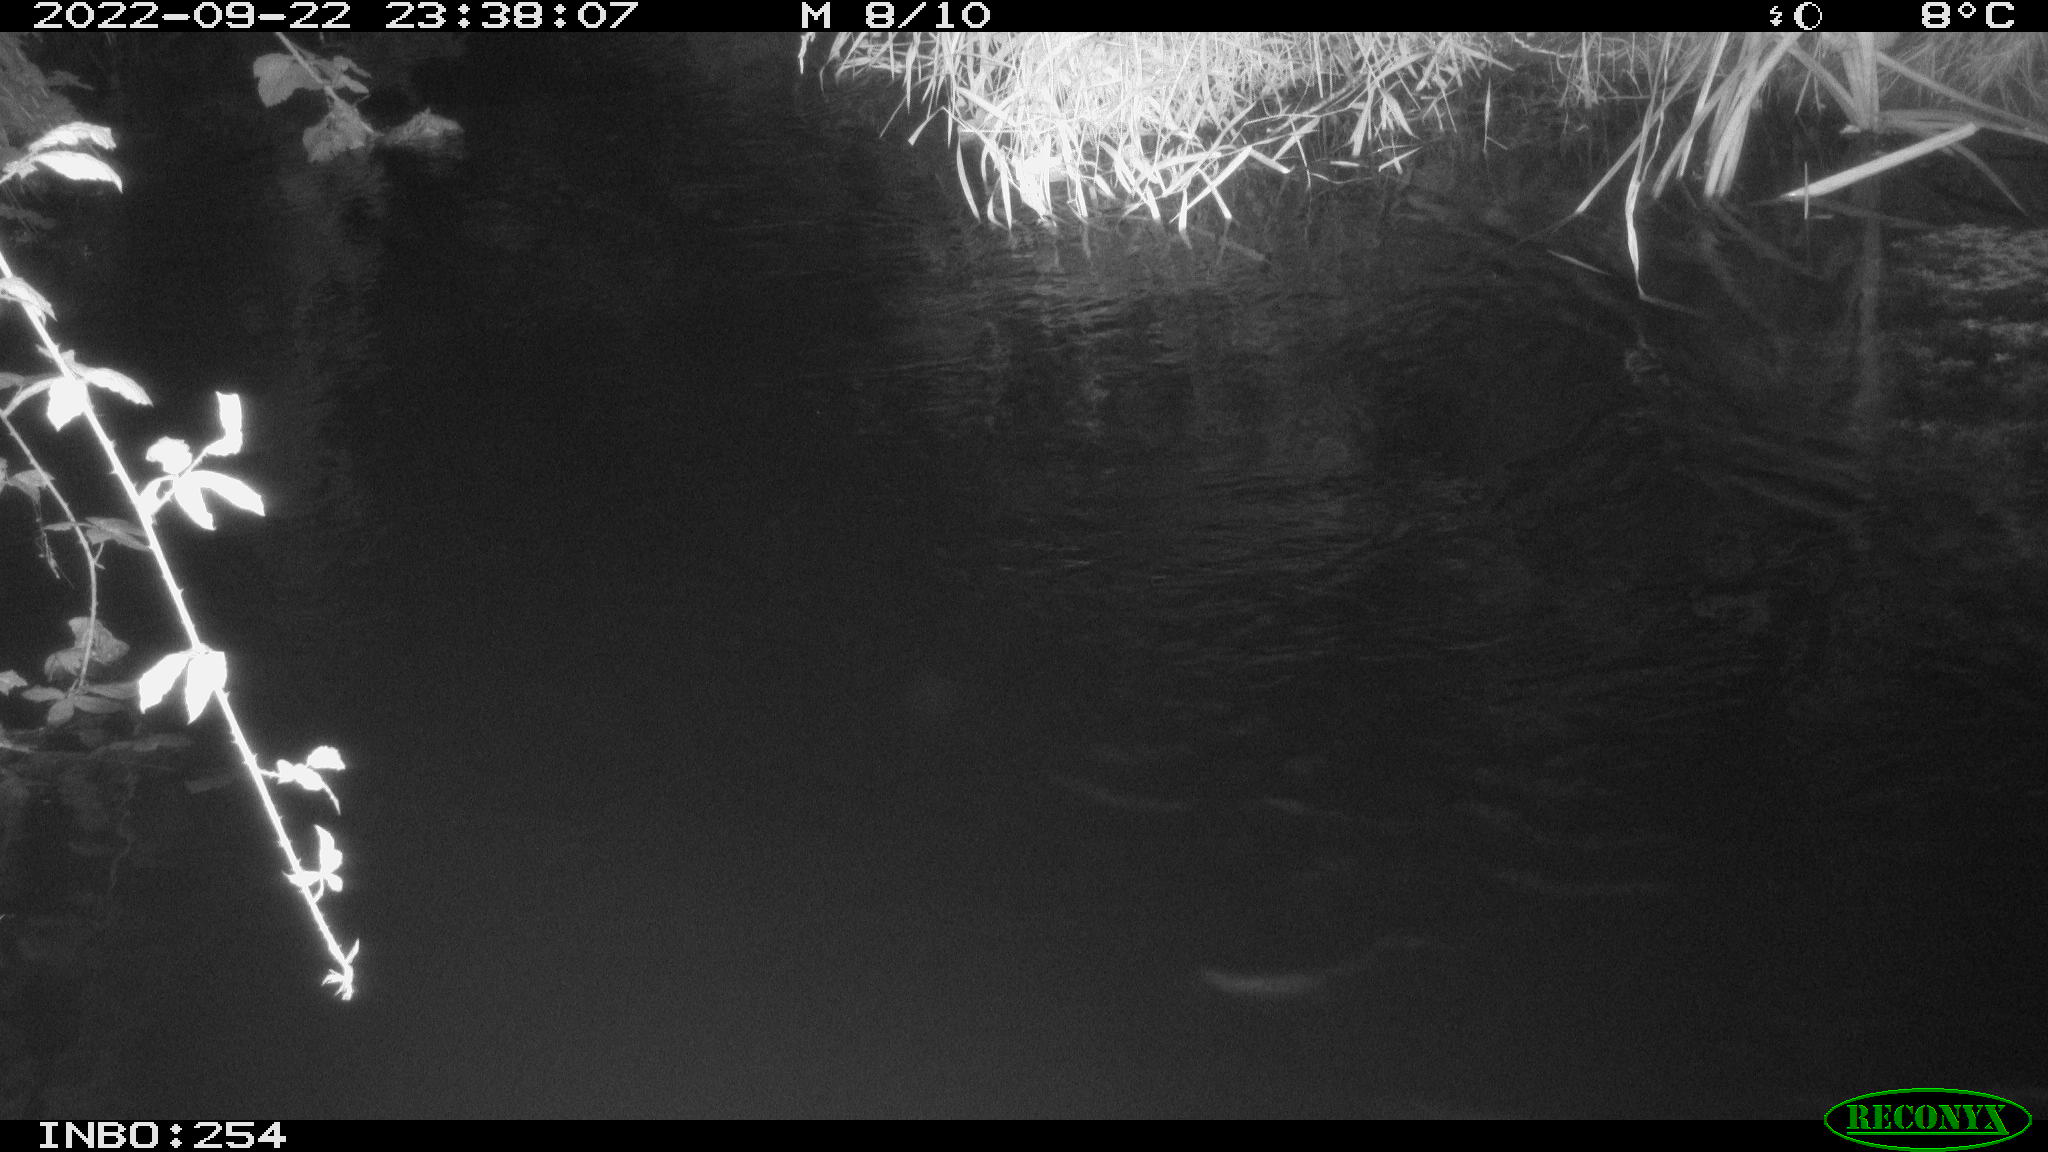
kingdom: Animalia
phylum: Chordata
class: Aves
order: Anseriformes
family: Anatidae
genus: Anas
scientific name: Anas
